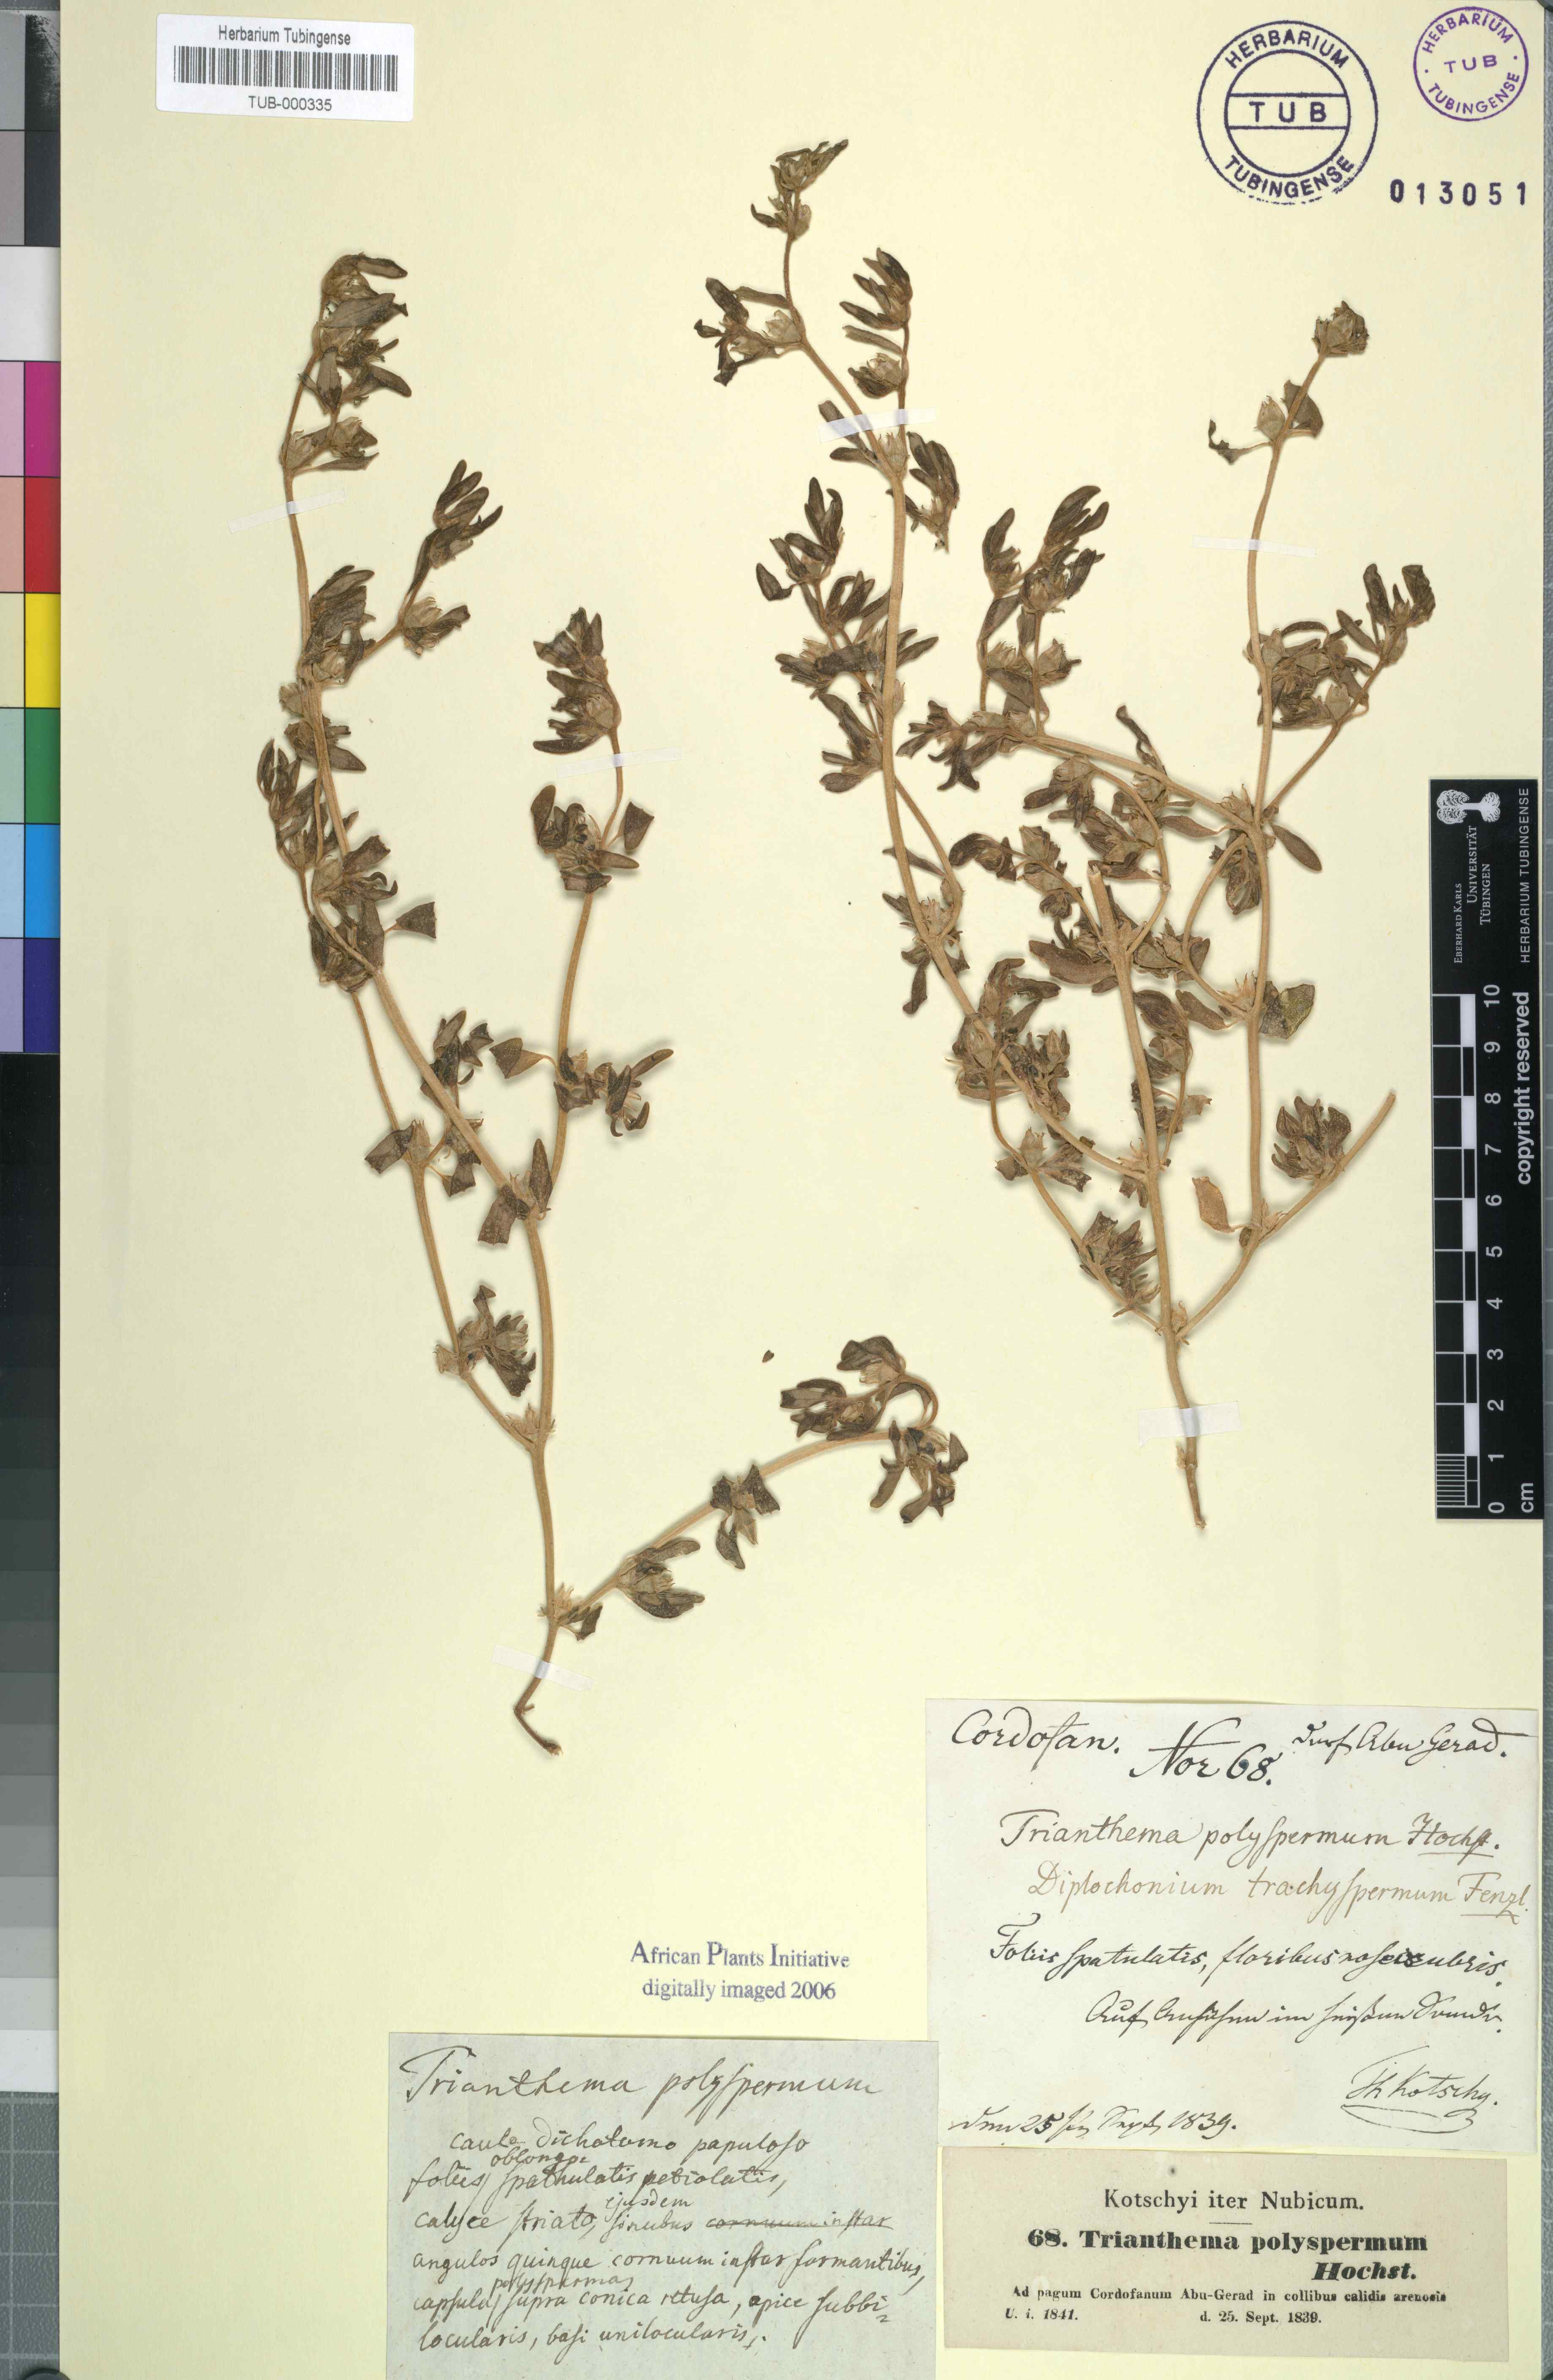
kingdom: Plantae
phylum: Tracheophyta
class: Magnoliopsida
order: Caryophyllales
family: Aizoaceae
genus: Sesuvium
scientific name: Sesuvium hydaspicum
